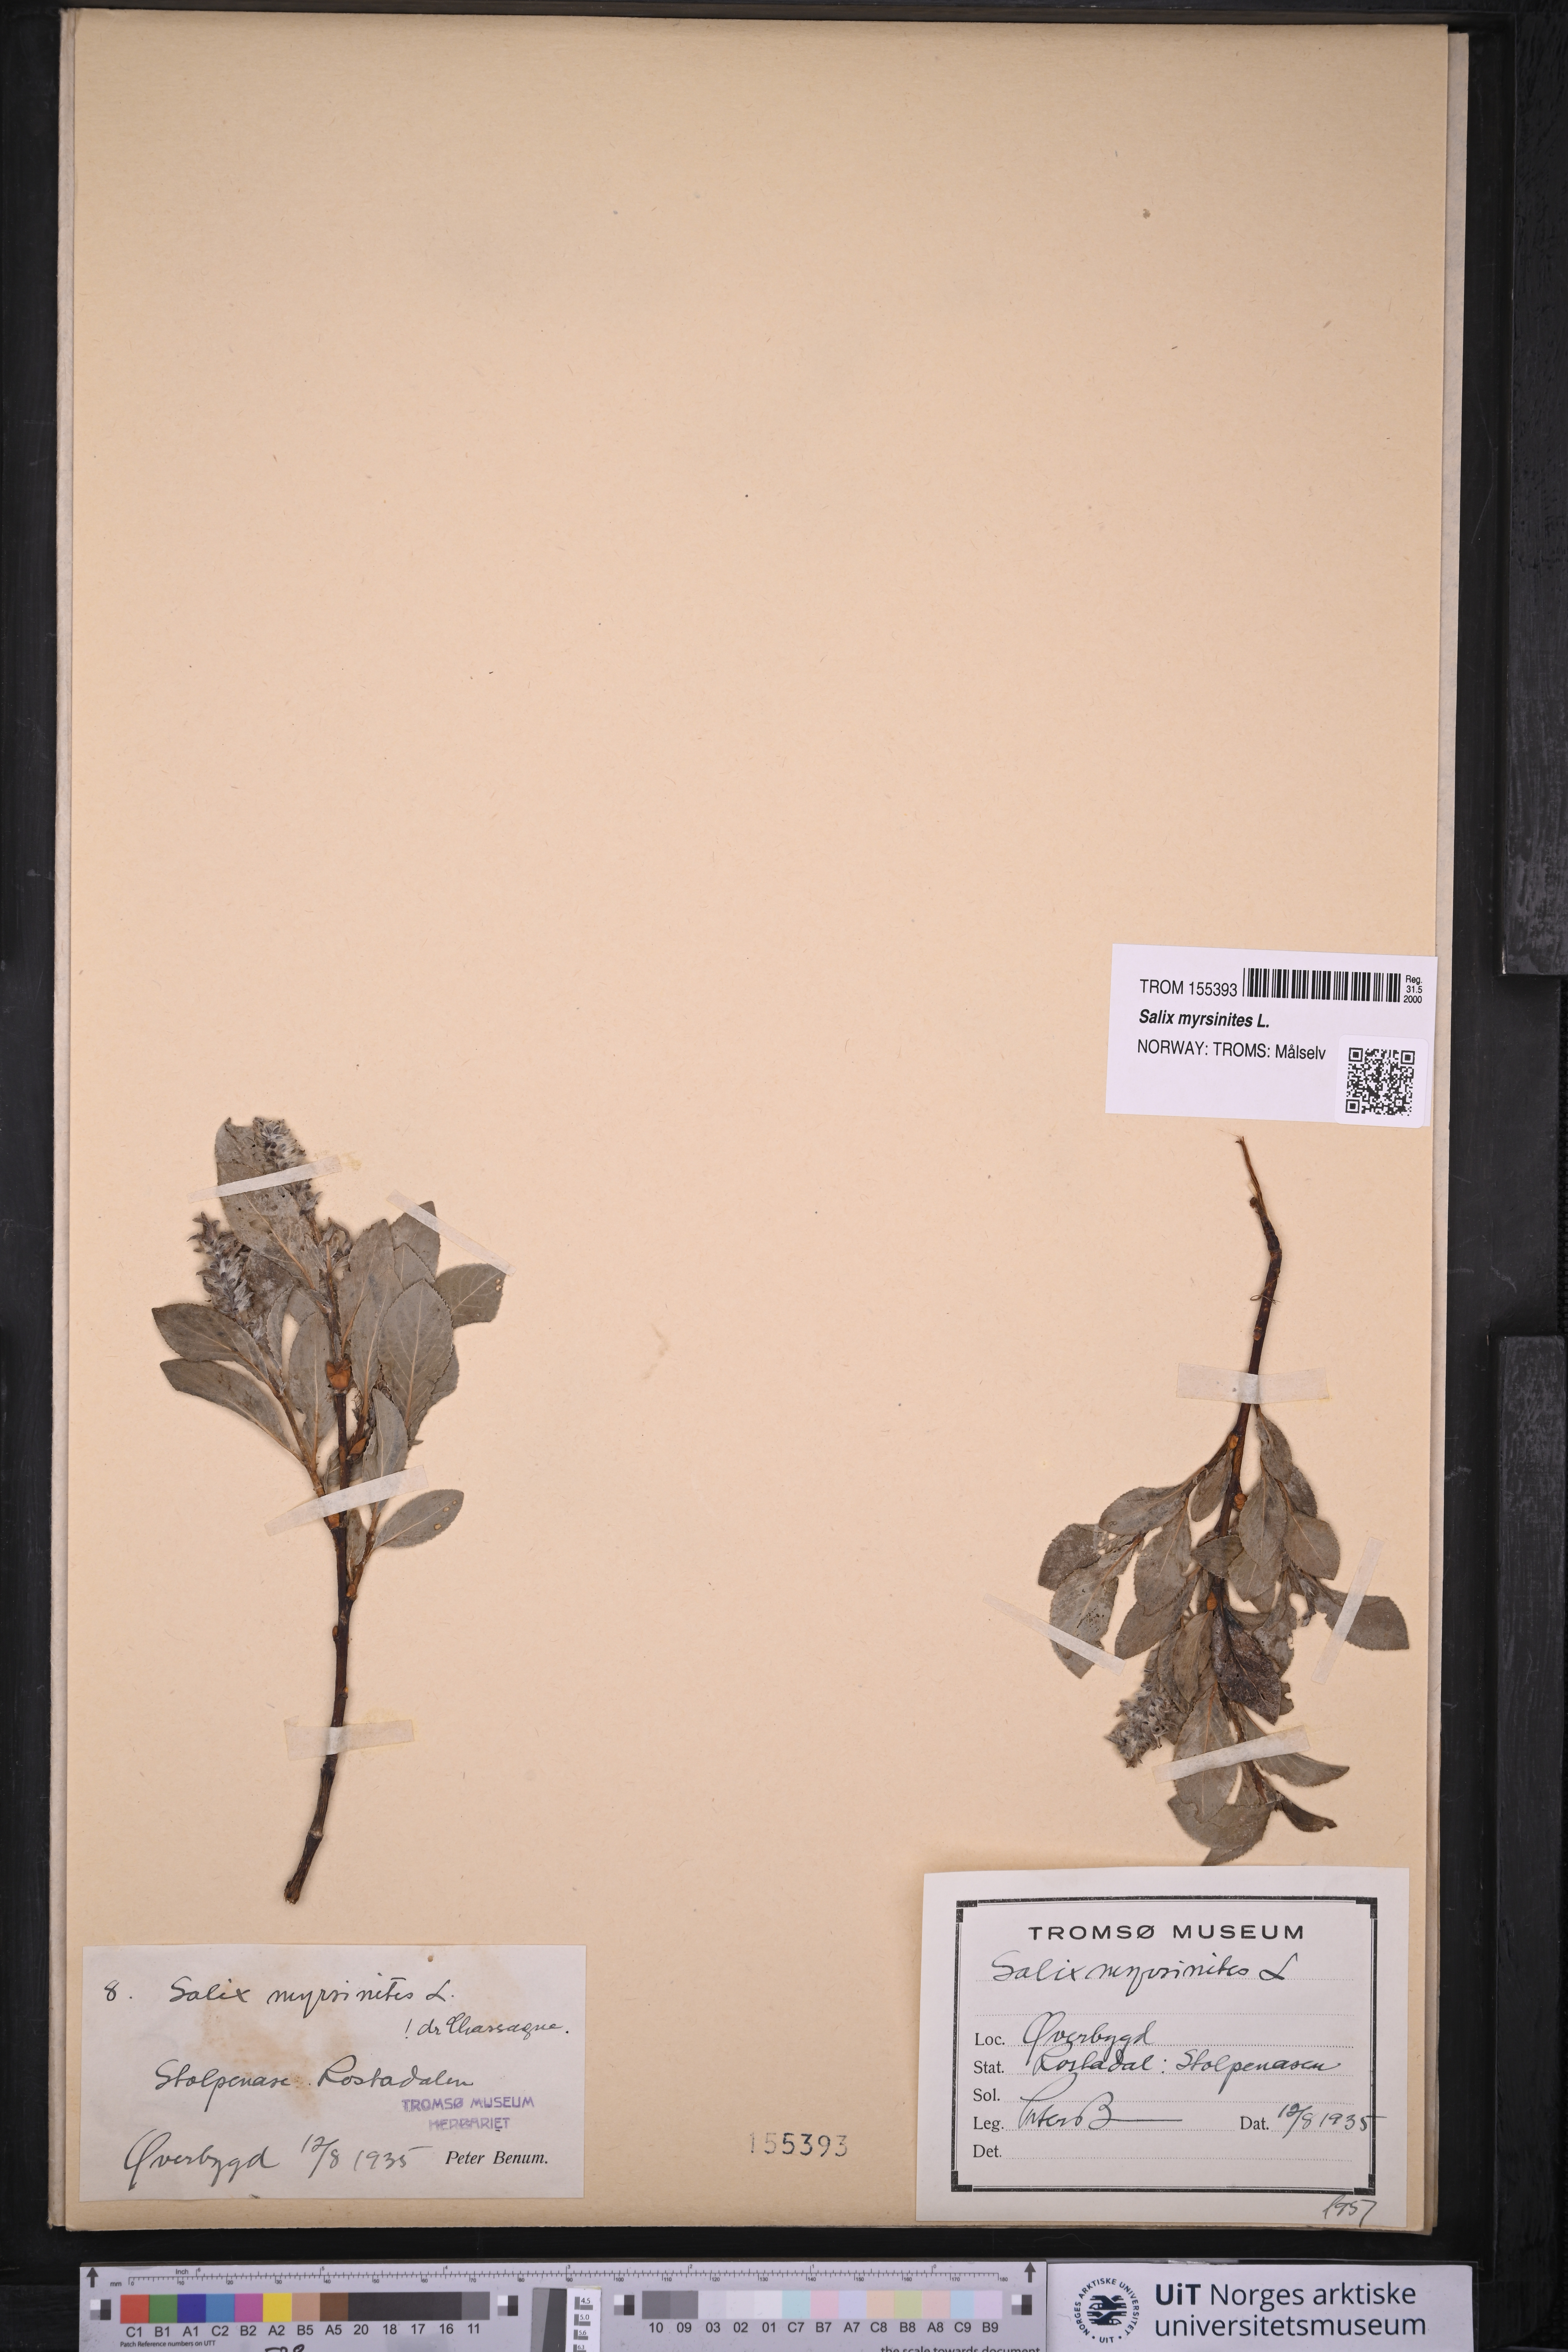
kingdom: Plantae
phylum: Tracheophyta
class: Magnoliopsida
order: Malpighiales
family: Salicaceae
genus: Salix
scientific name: Salix myrsinites
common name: Myrtle willow
